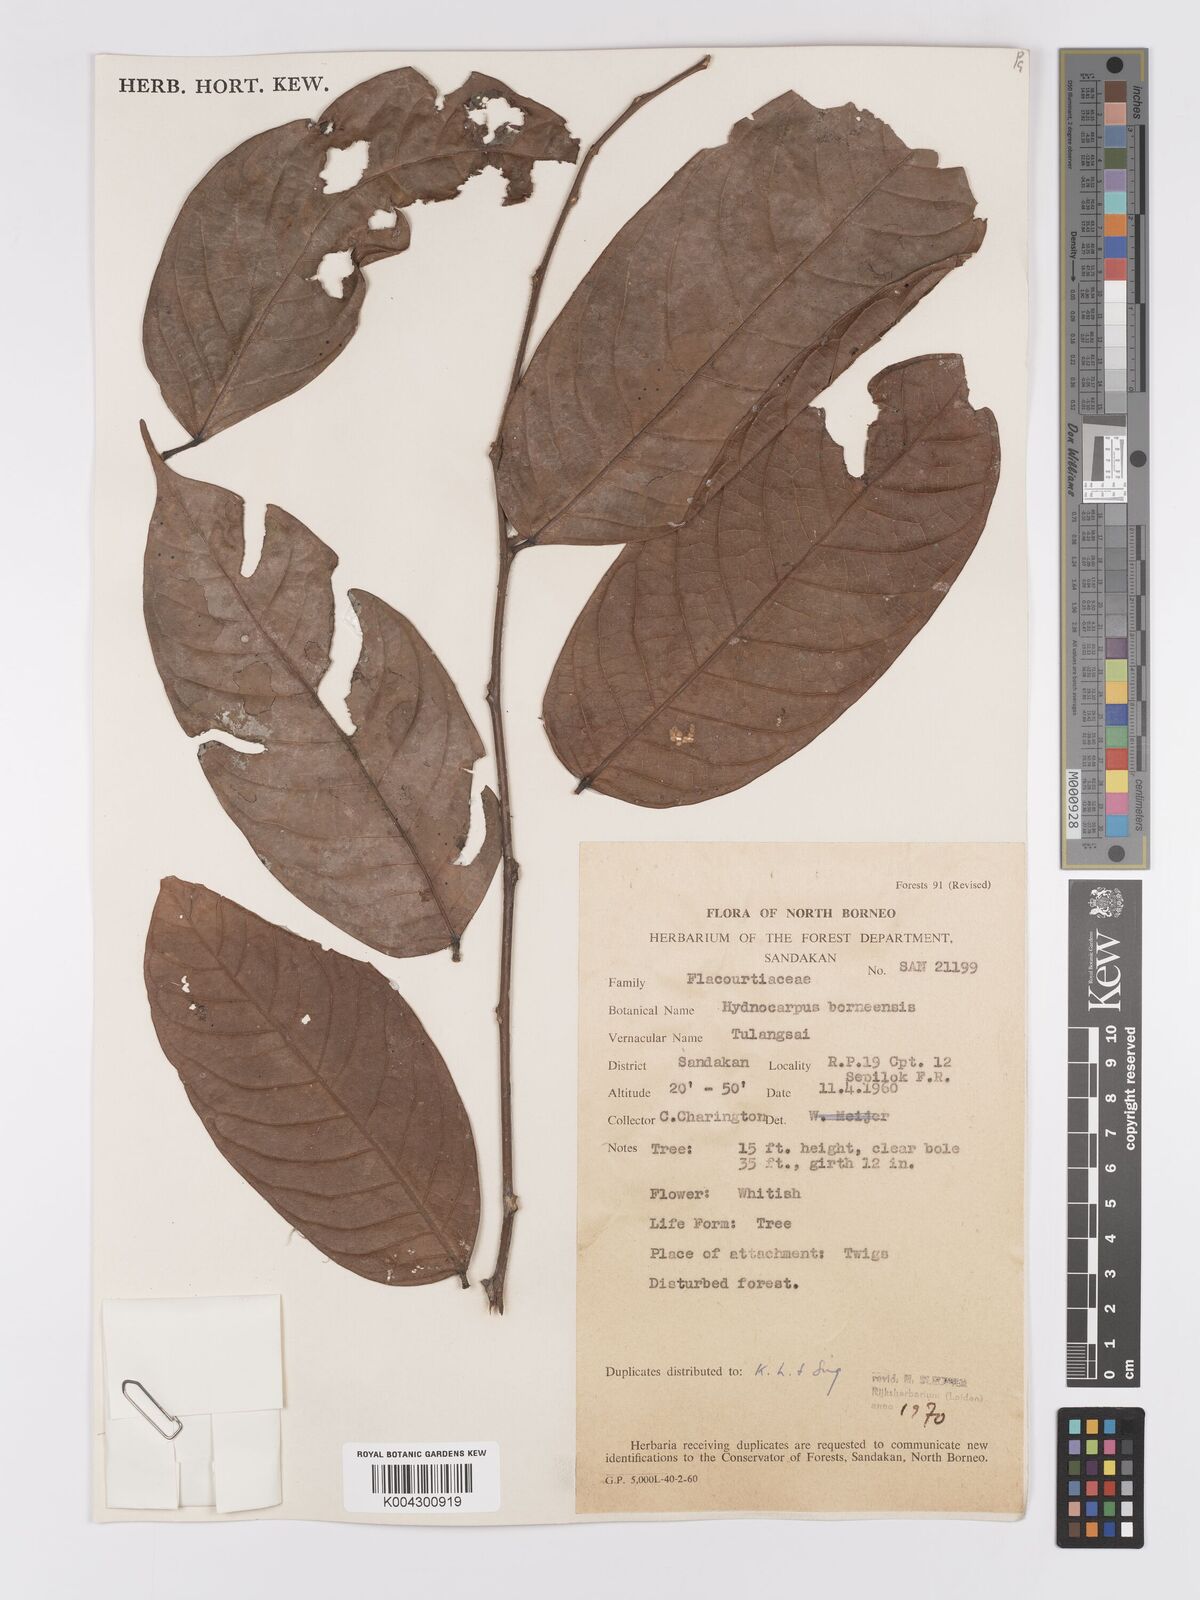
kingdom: Plantae
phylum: Tracheophyta
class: Magnoliopsida
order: Malpighiales
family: Achariaceae
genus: Hydnocarpus
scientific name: Hydnocarpus borneensis
